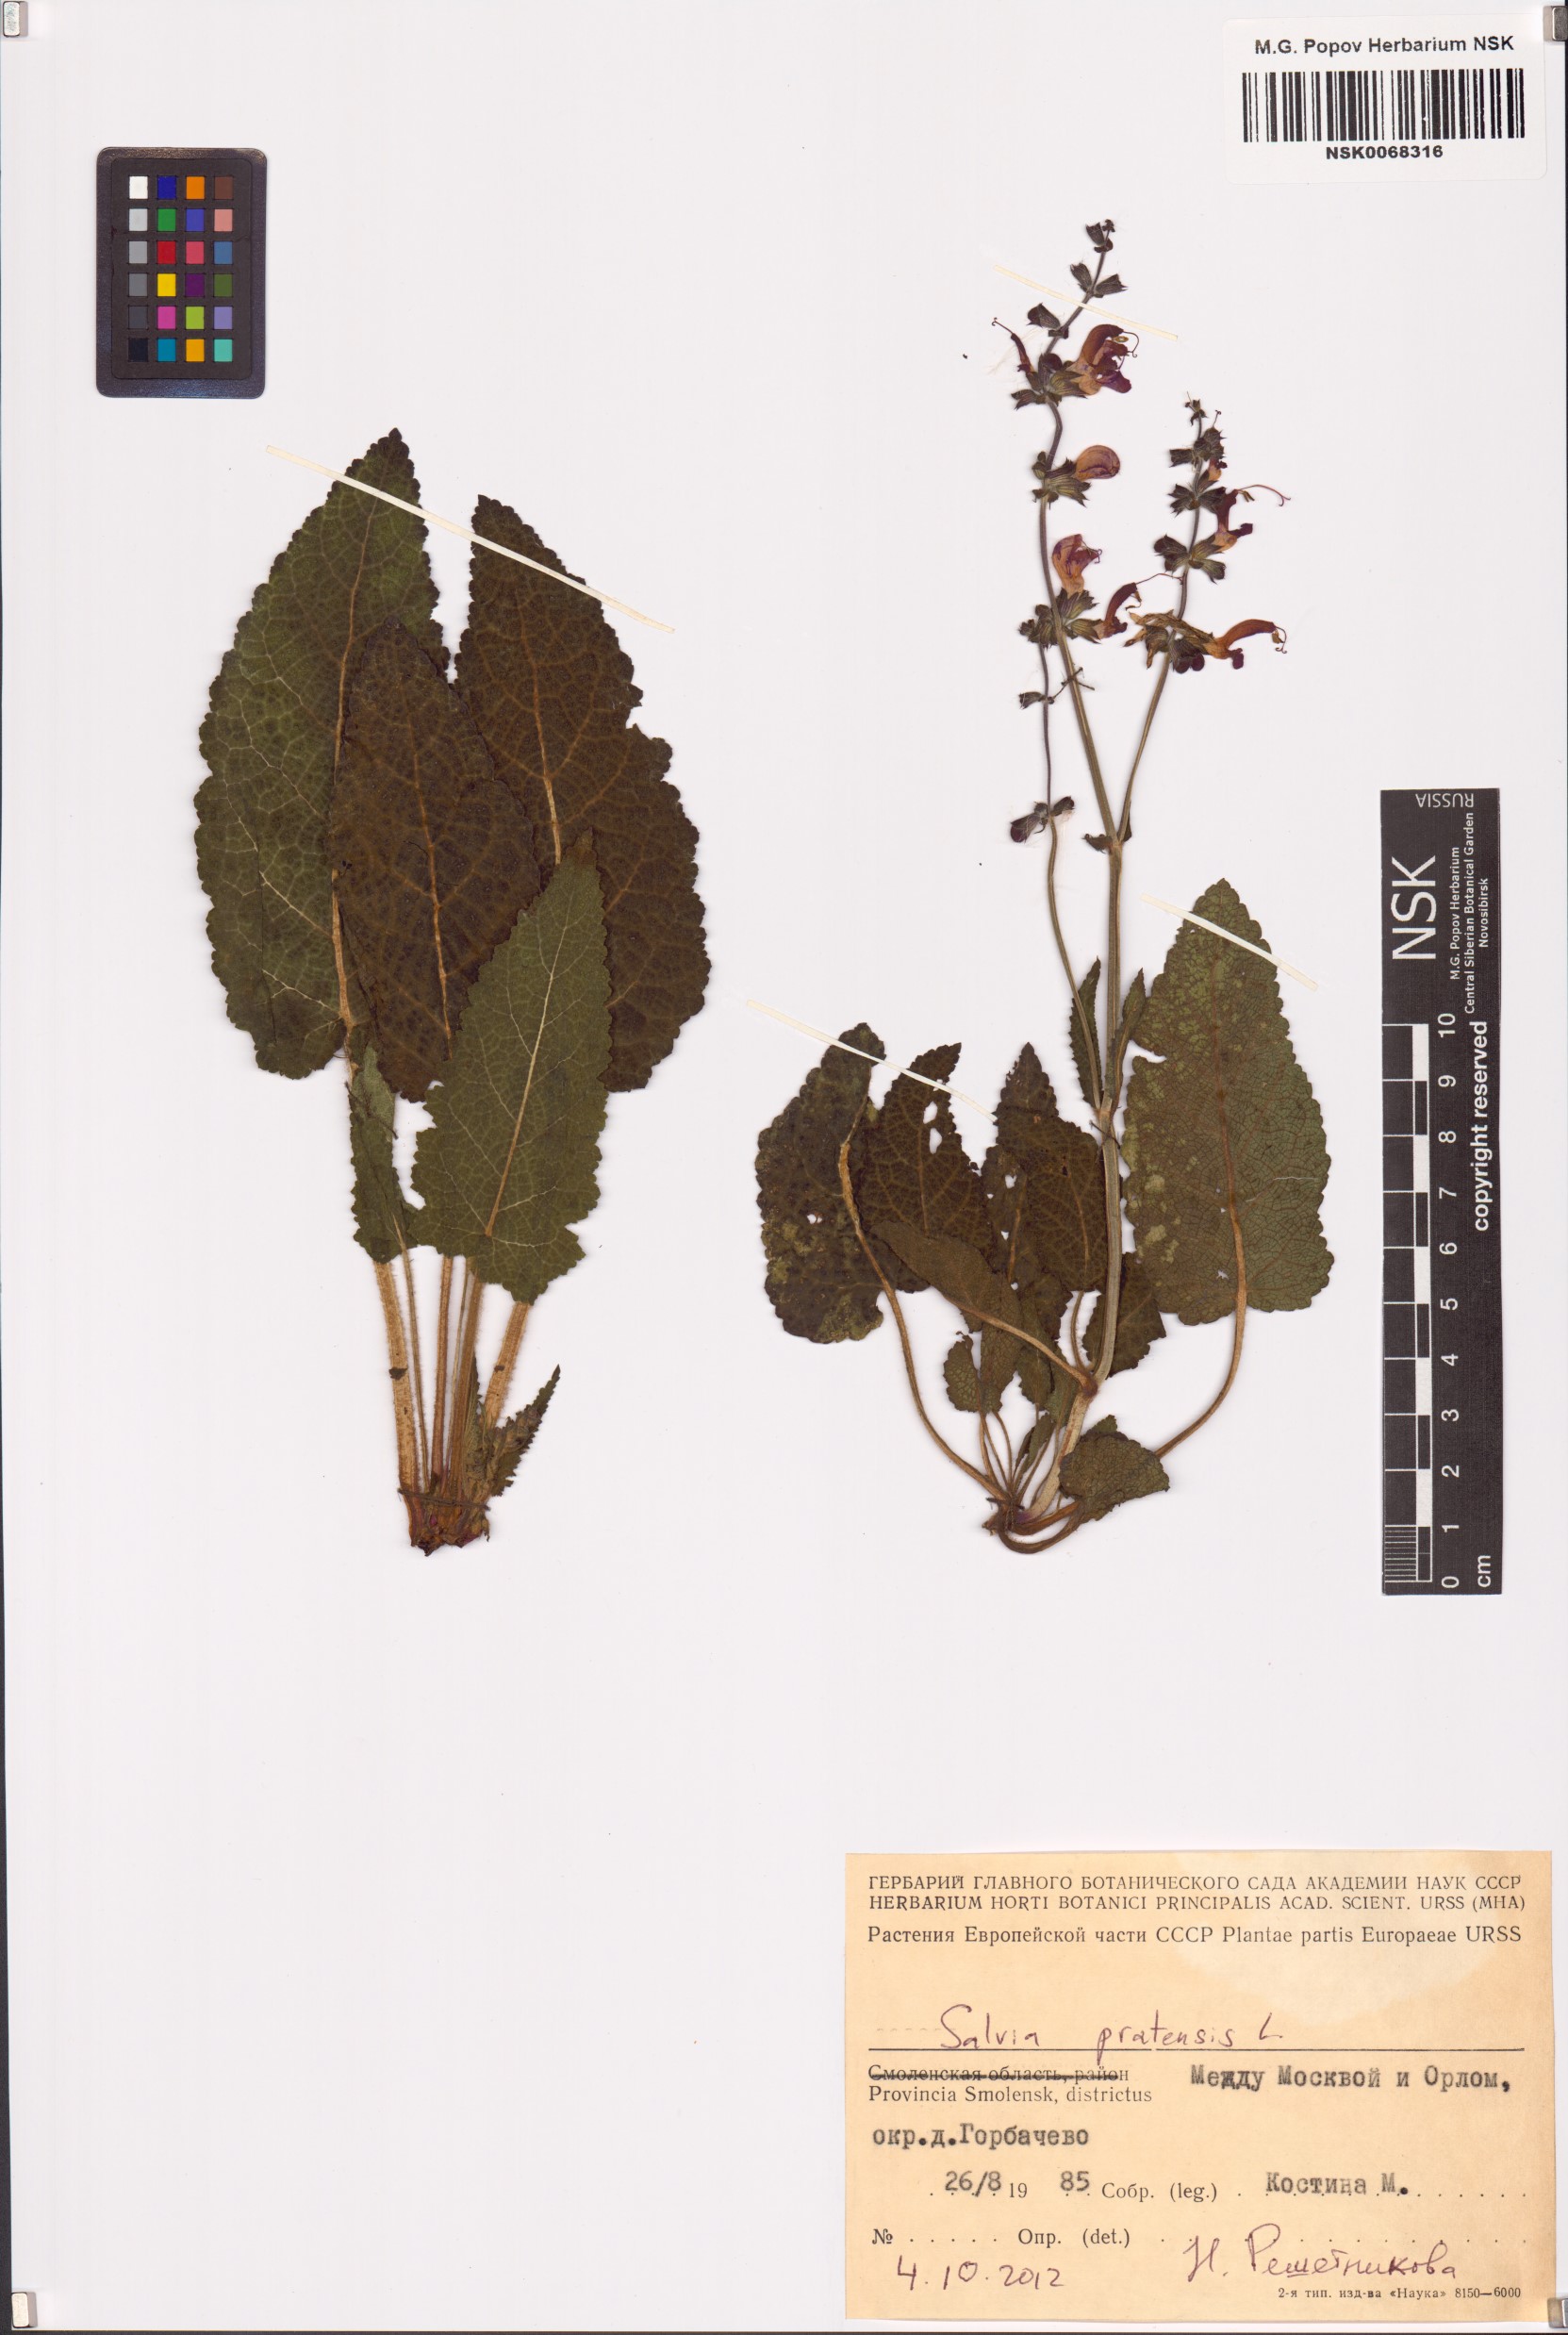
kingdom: Plantae
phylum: Tracheophyta
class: Magnoliopsida
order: Lamiales
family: Lamiaceae
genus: Salvia
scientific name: Salvia pratensis
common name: Meadow sage
